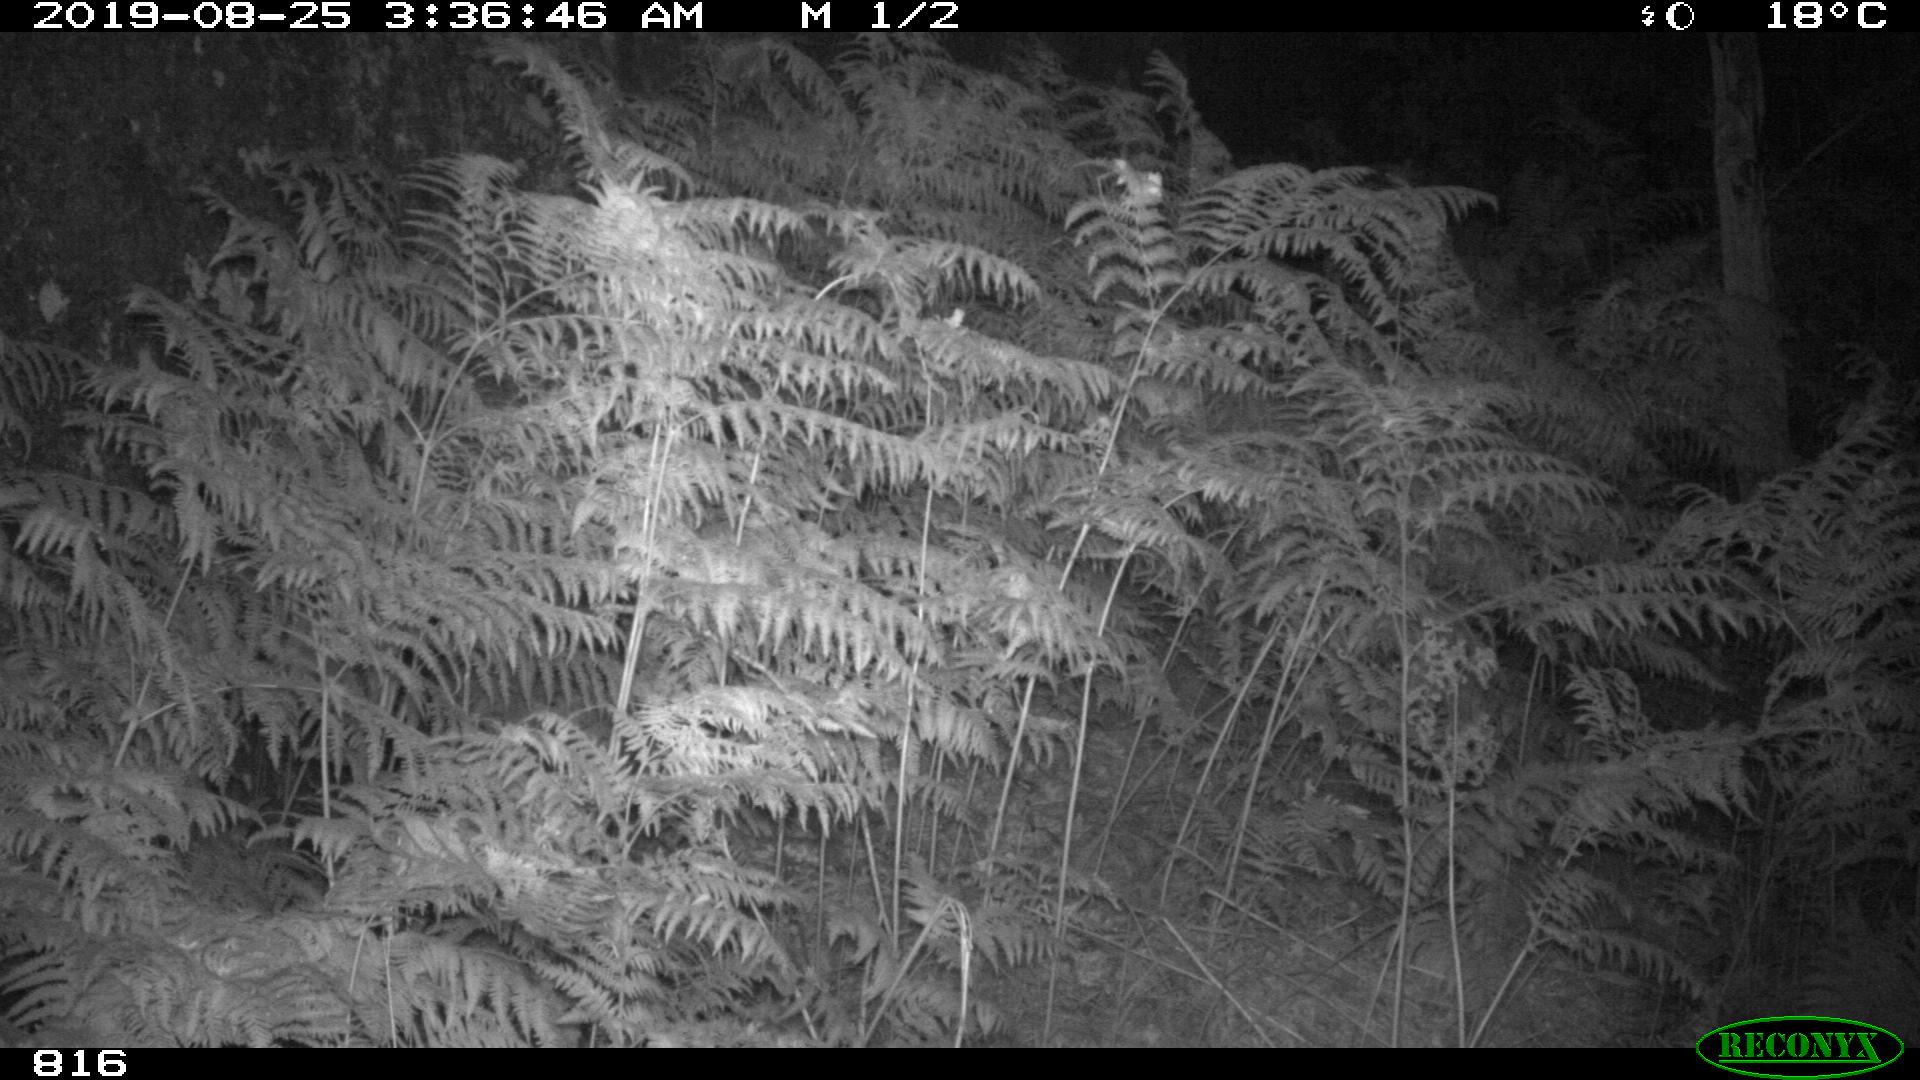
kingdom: Animalia
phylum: Chordata
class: Mammalia
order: Perissodactyla
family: Equidae
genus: Equus
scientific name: Equus caballus
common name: Horse
